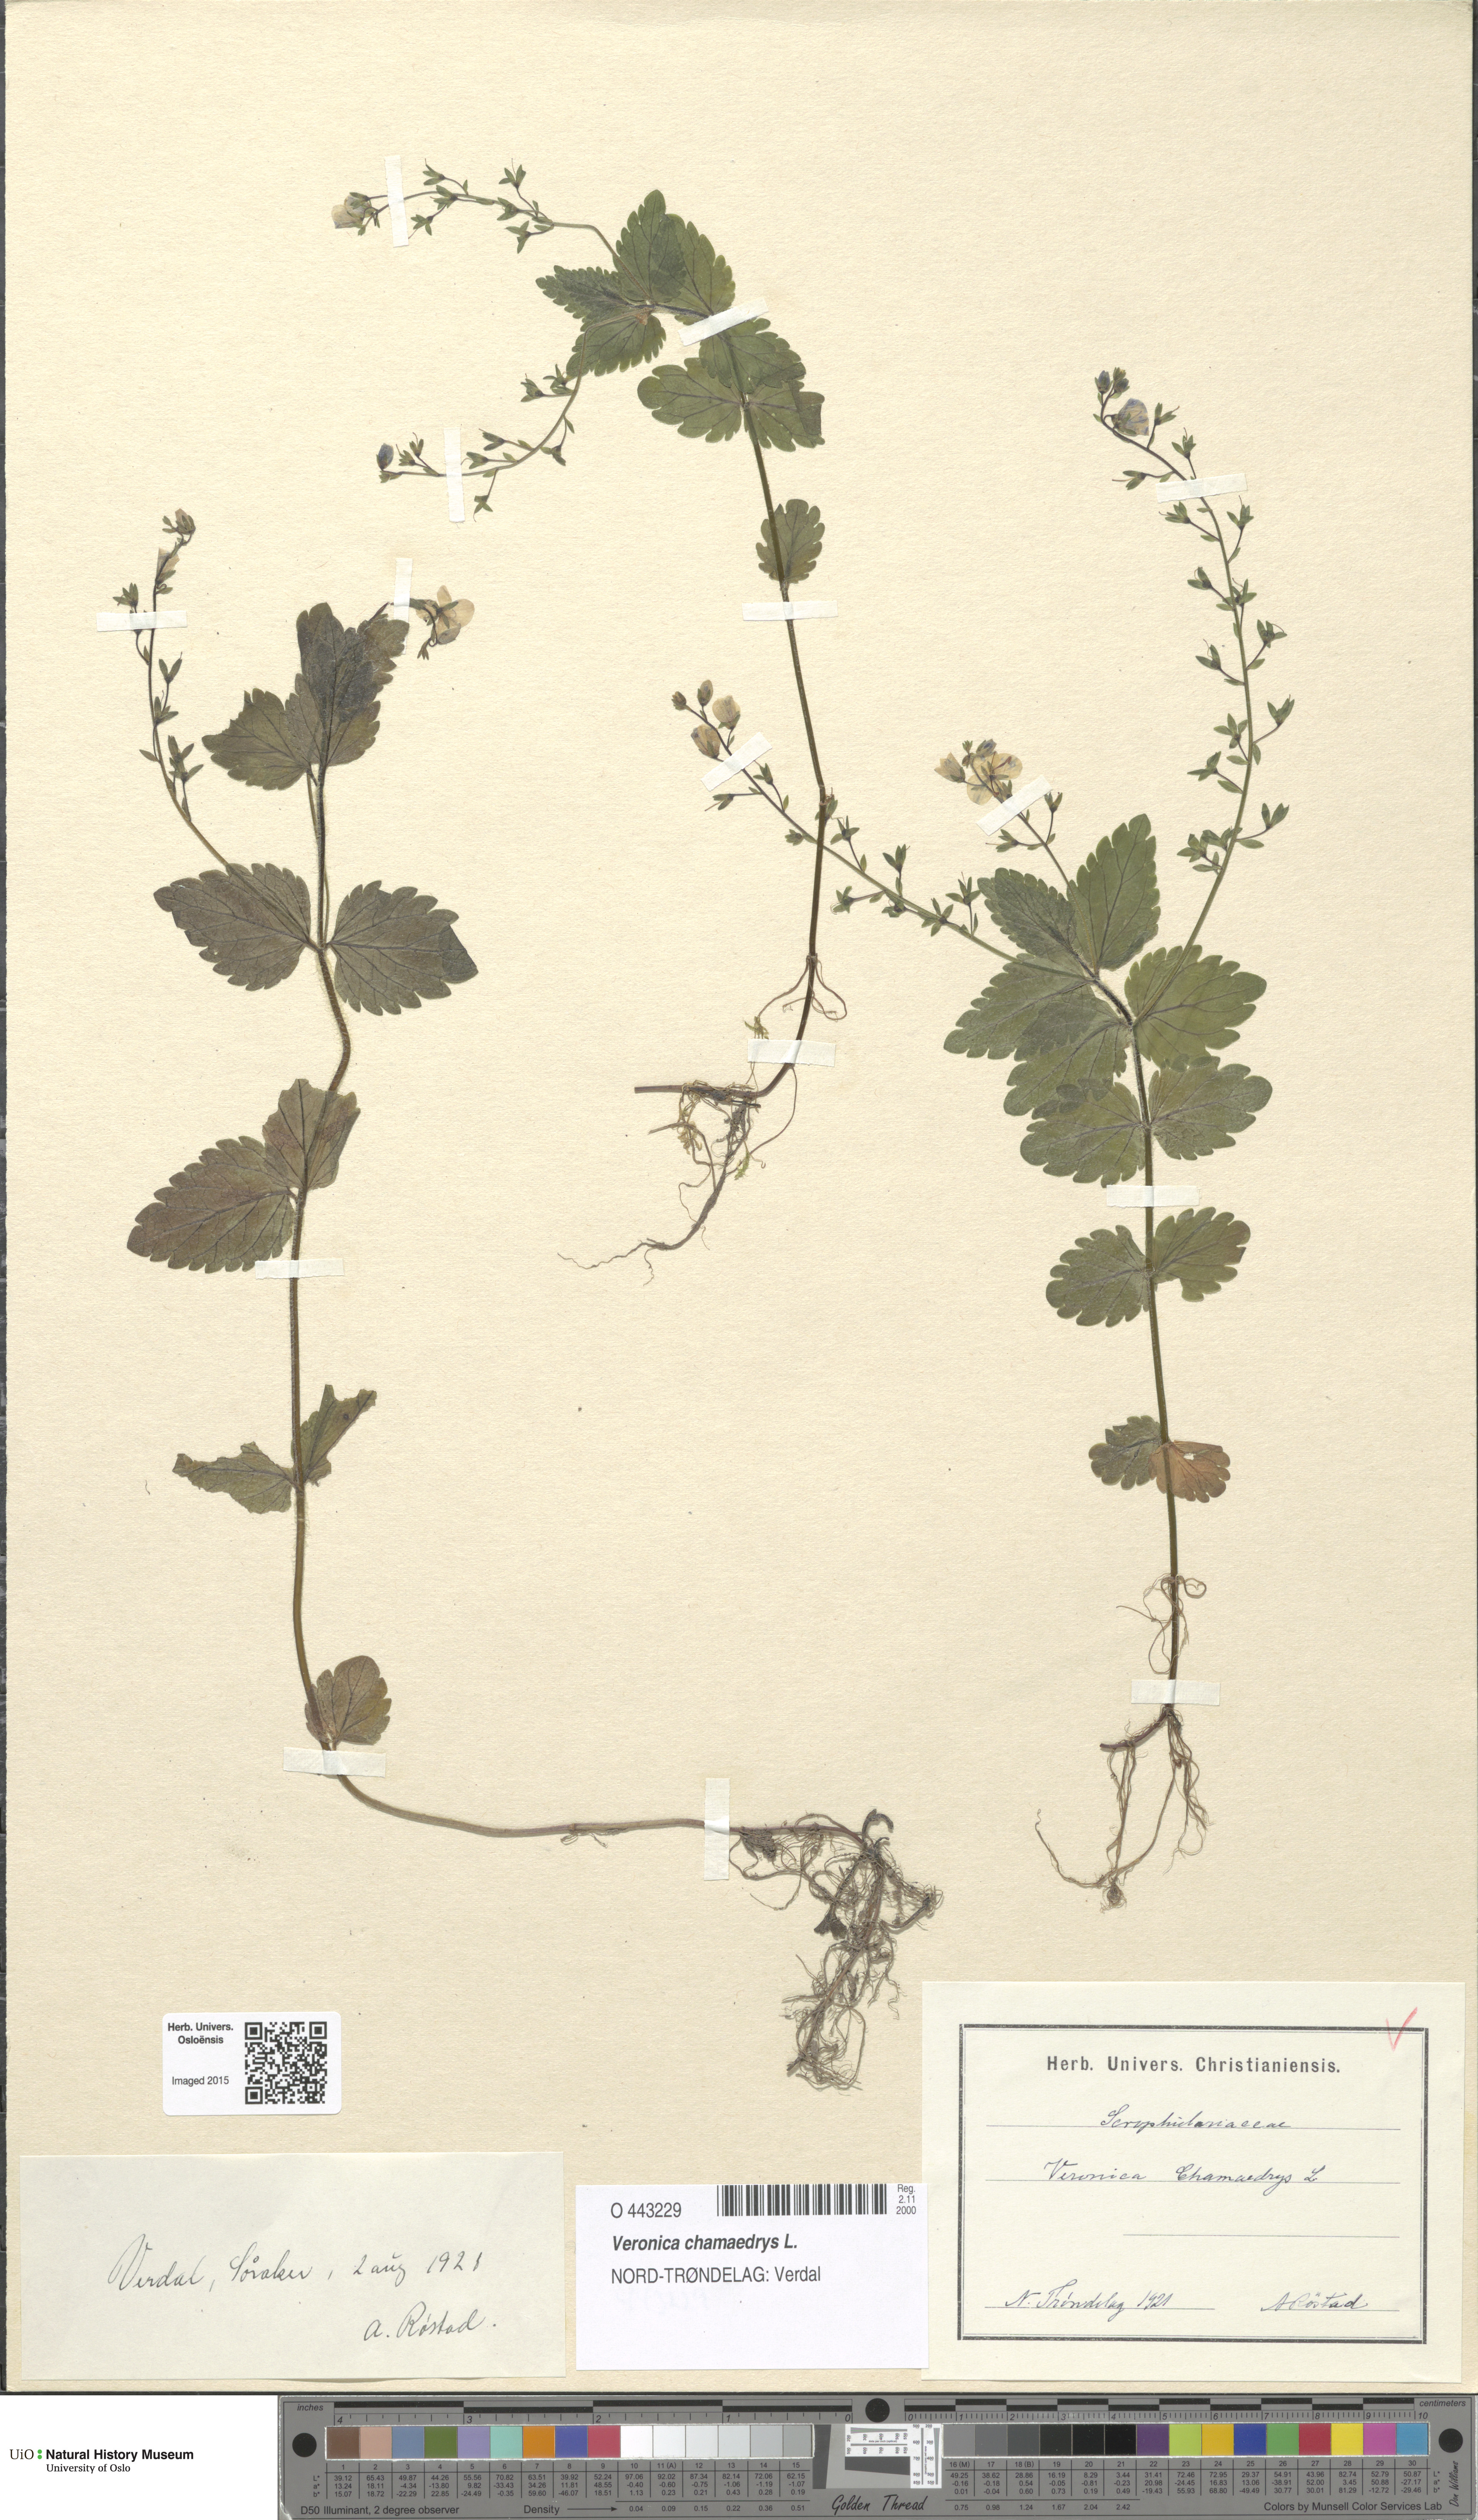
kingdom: Plantae
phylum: Tracheophyta
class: Magnoliopsida
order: Lamiales
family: Plantaginaceae
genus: Veronica
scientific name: Veronica chamaedrys
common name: Germander speedwell
